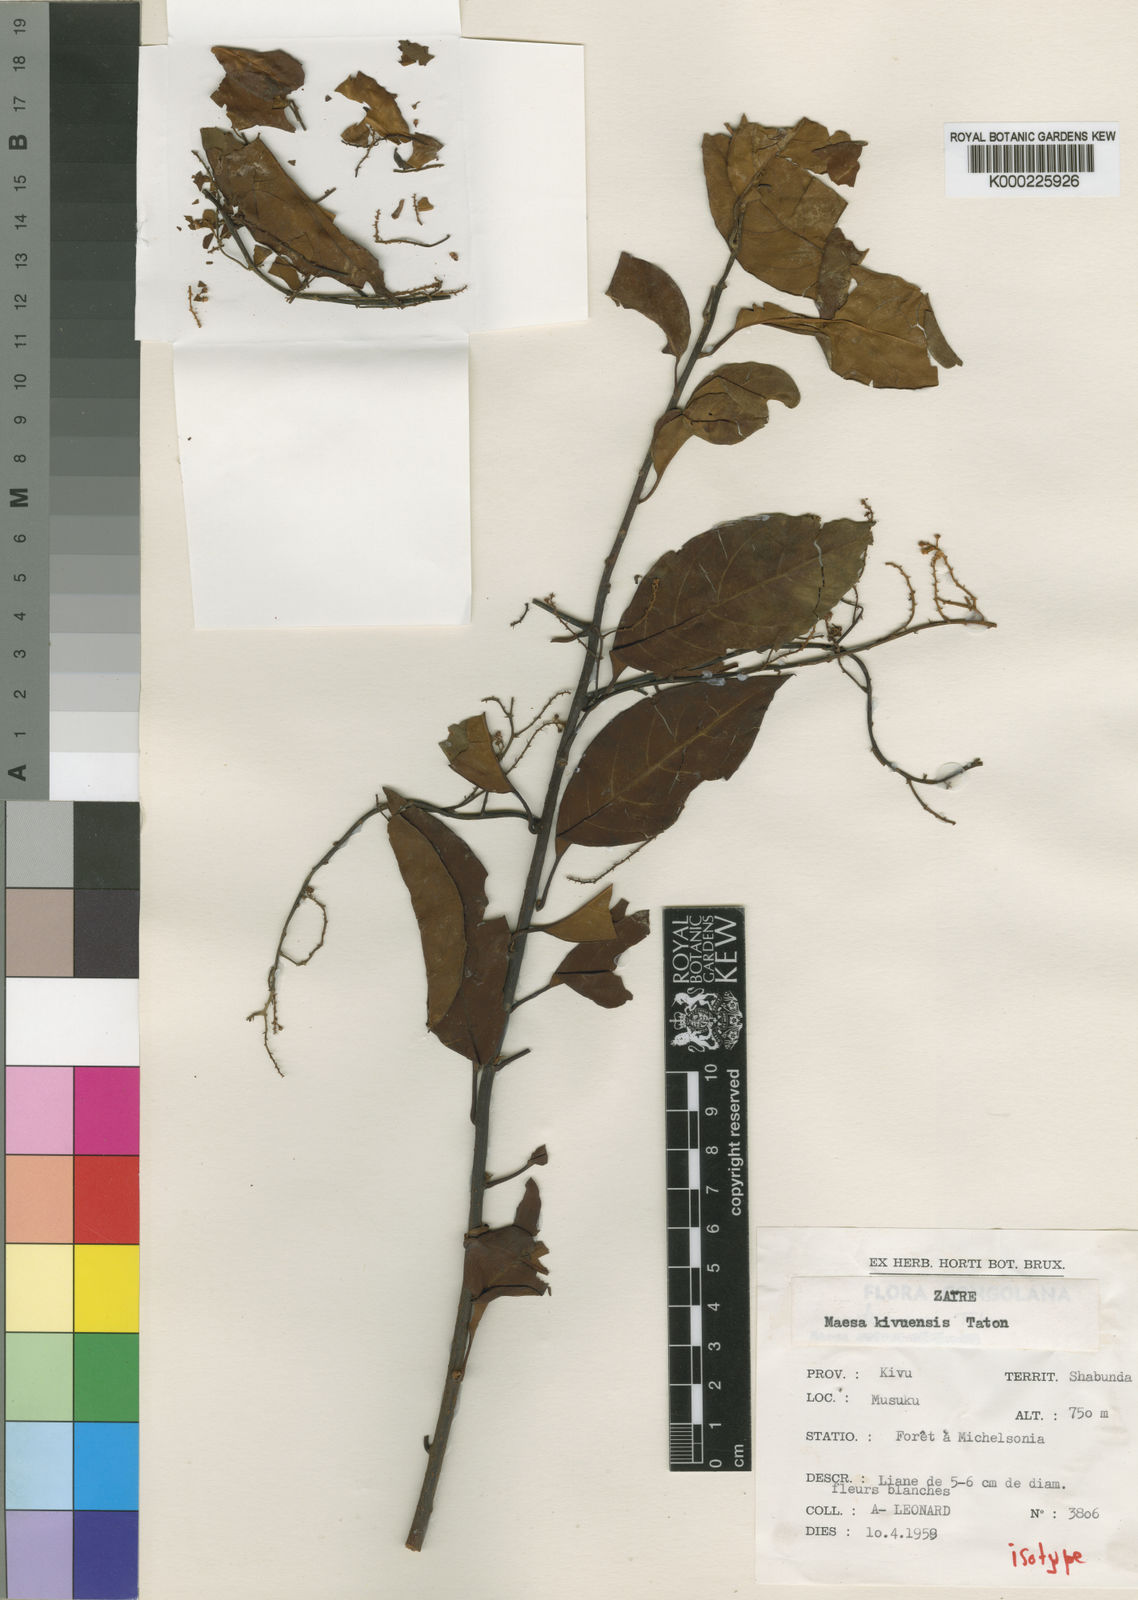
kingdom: Plantae
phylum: Tracheophyta
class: Magnoliopsida
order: Ericales
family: Primulaceae
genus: Maesa
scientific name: Maesa kivuensis
